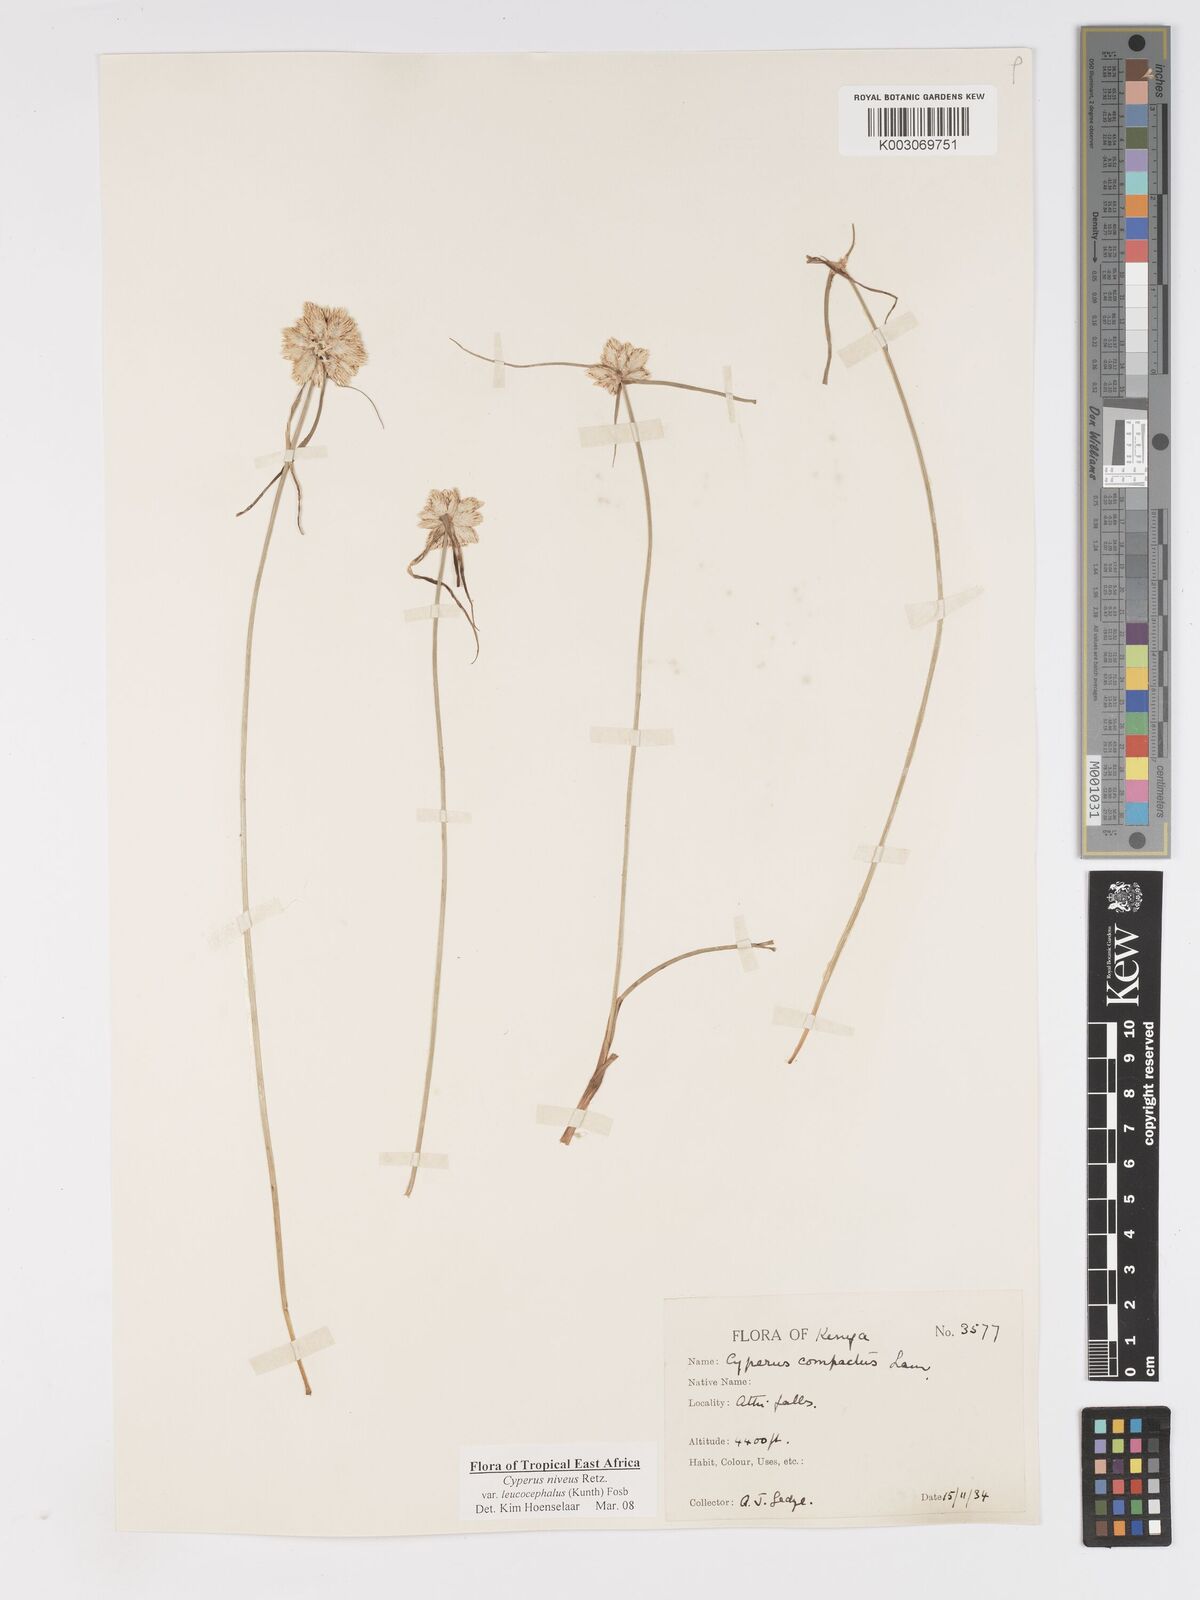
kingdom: Plantae
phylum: Tracheophyta
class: Liliopsida
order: Poales
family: Cyperaceae
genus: Cyperus
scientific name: Cyperus niveus
